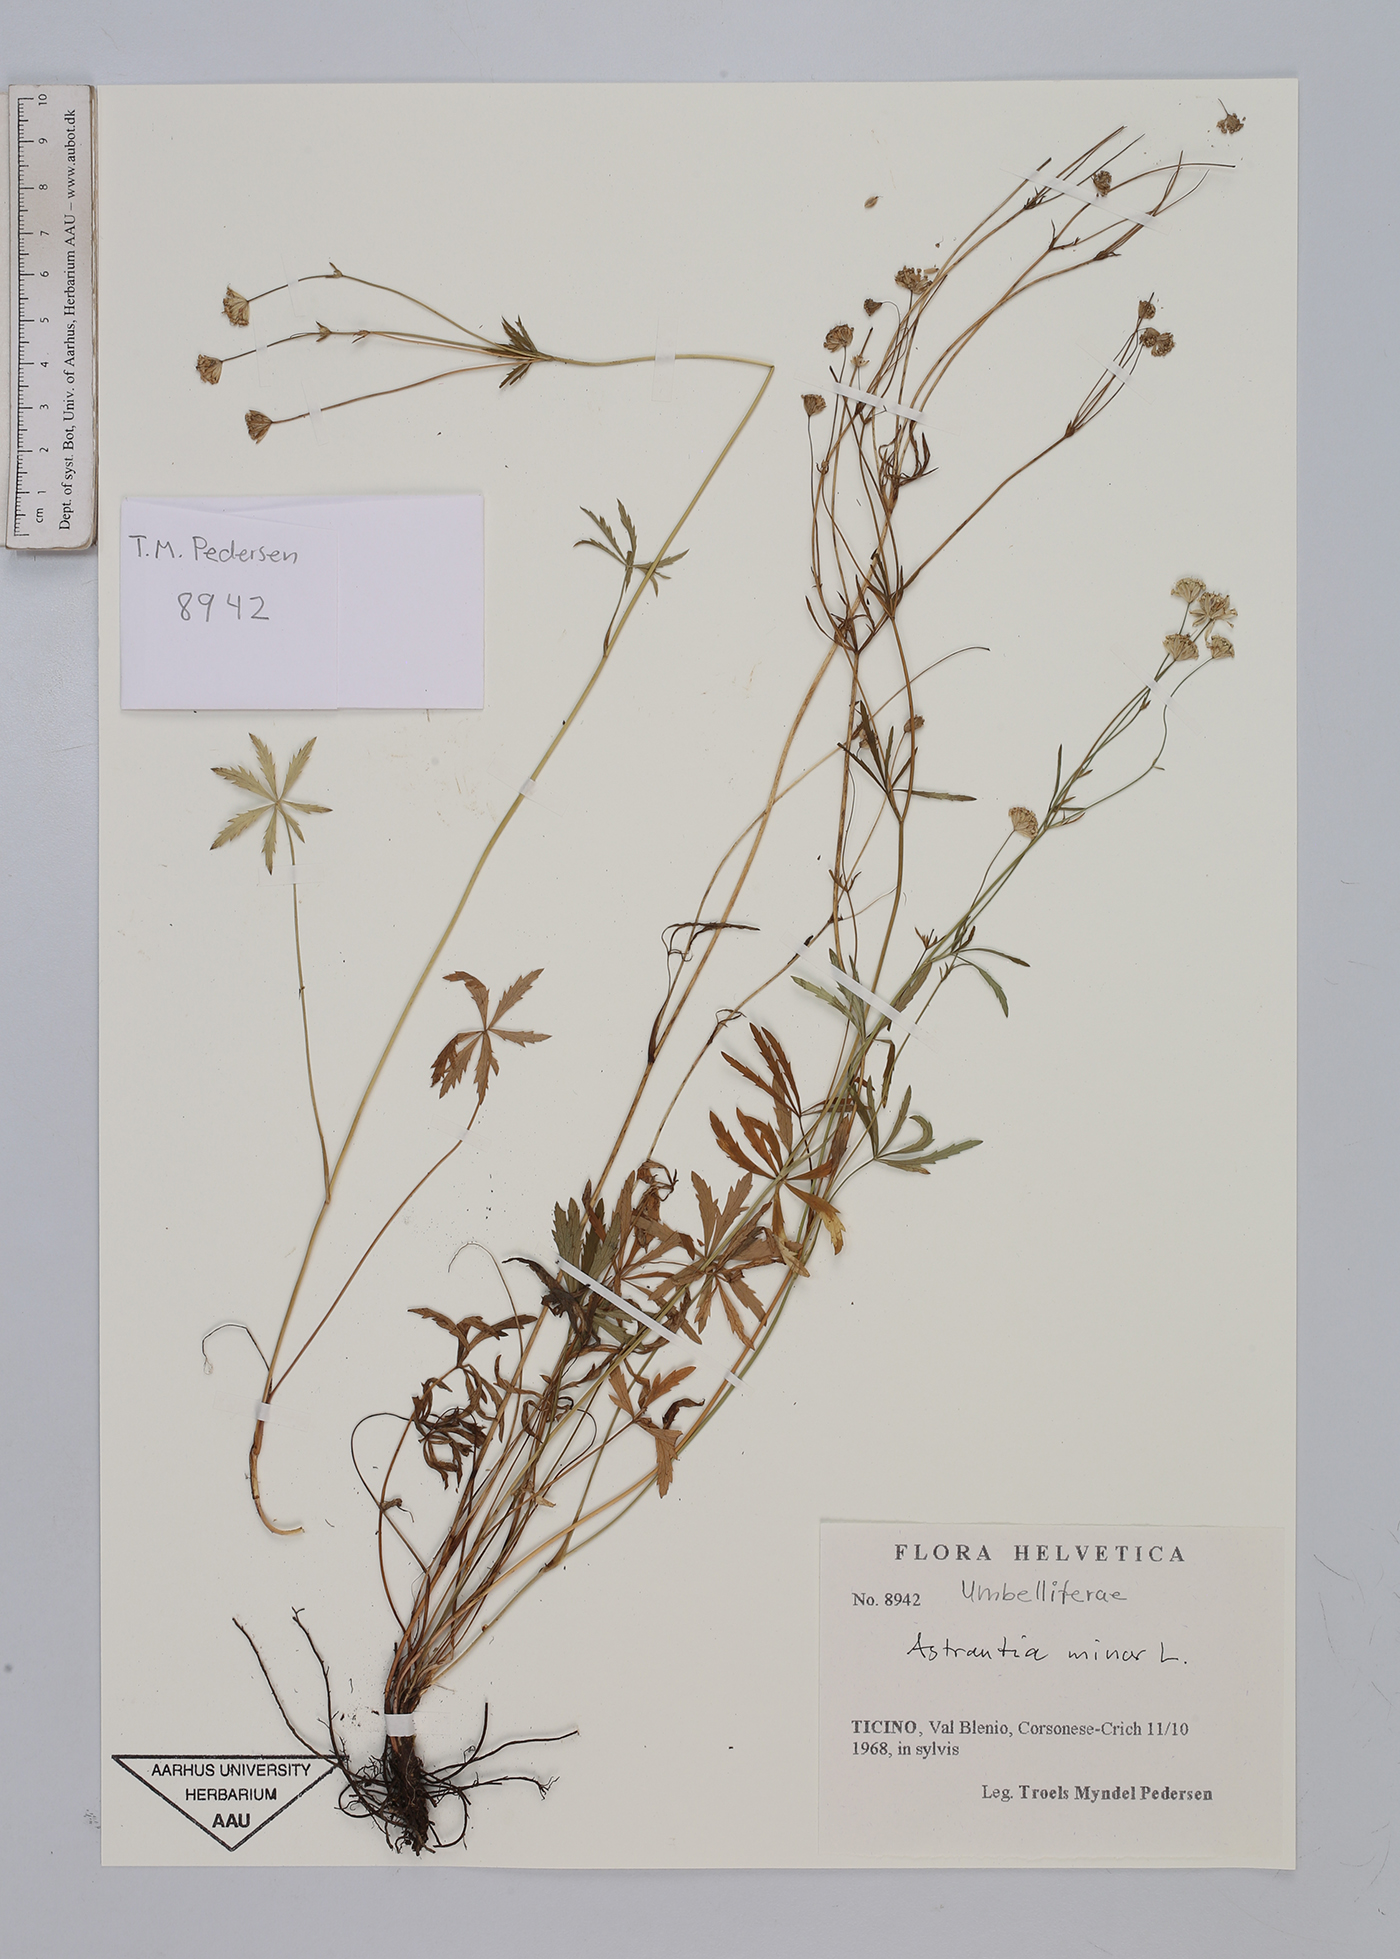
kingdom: Plantae
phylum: Tracheophyta
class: Magnoliopsida
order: Apiales
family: Apiaceae
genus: Astrantia
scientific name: Astrantia minor
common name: Lesser masterwort
